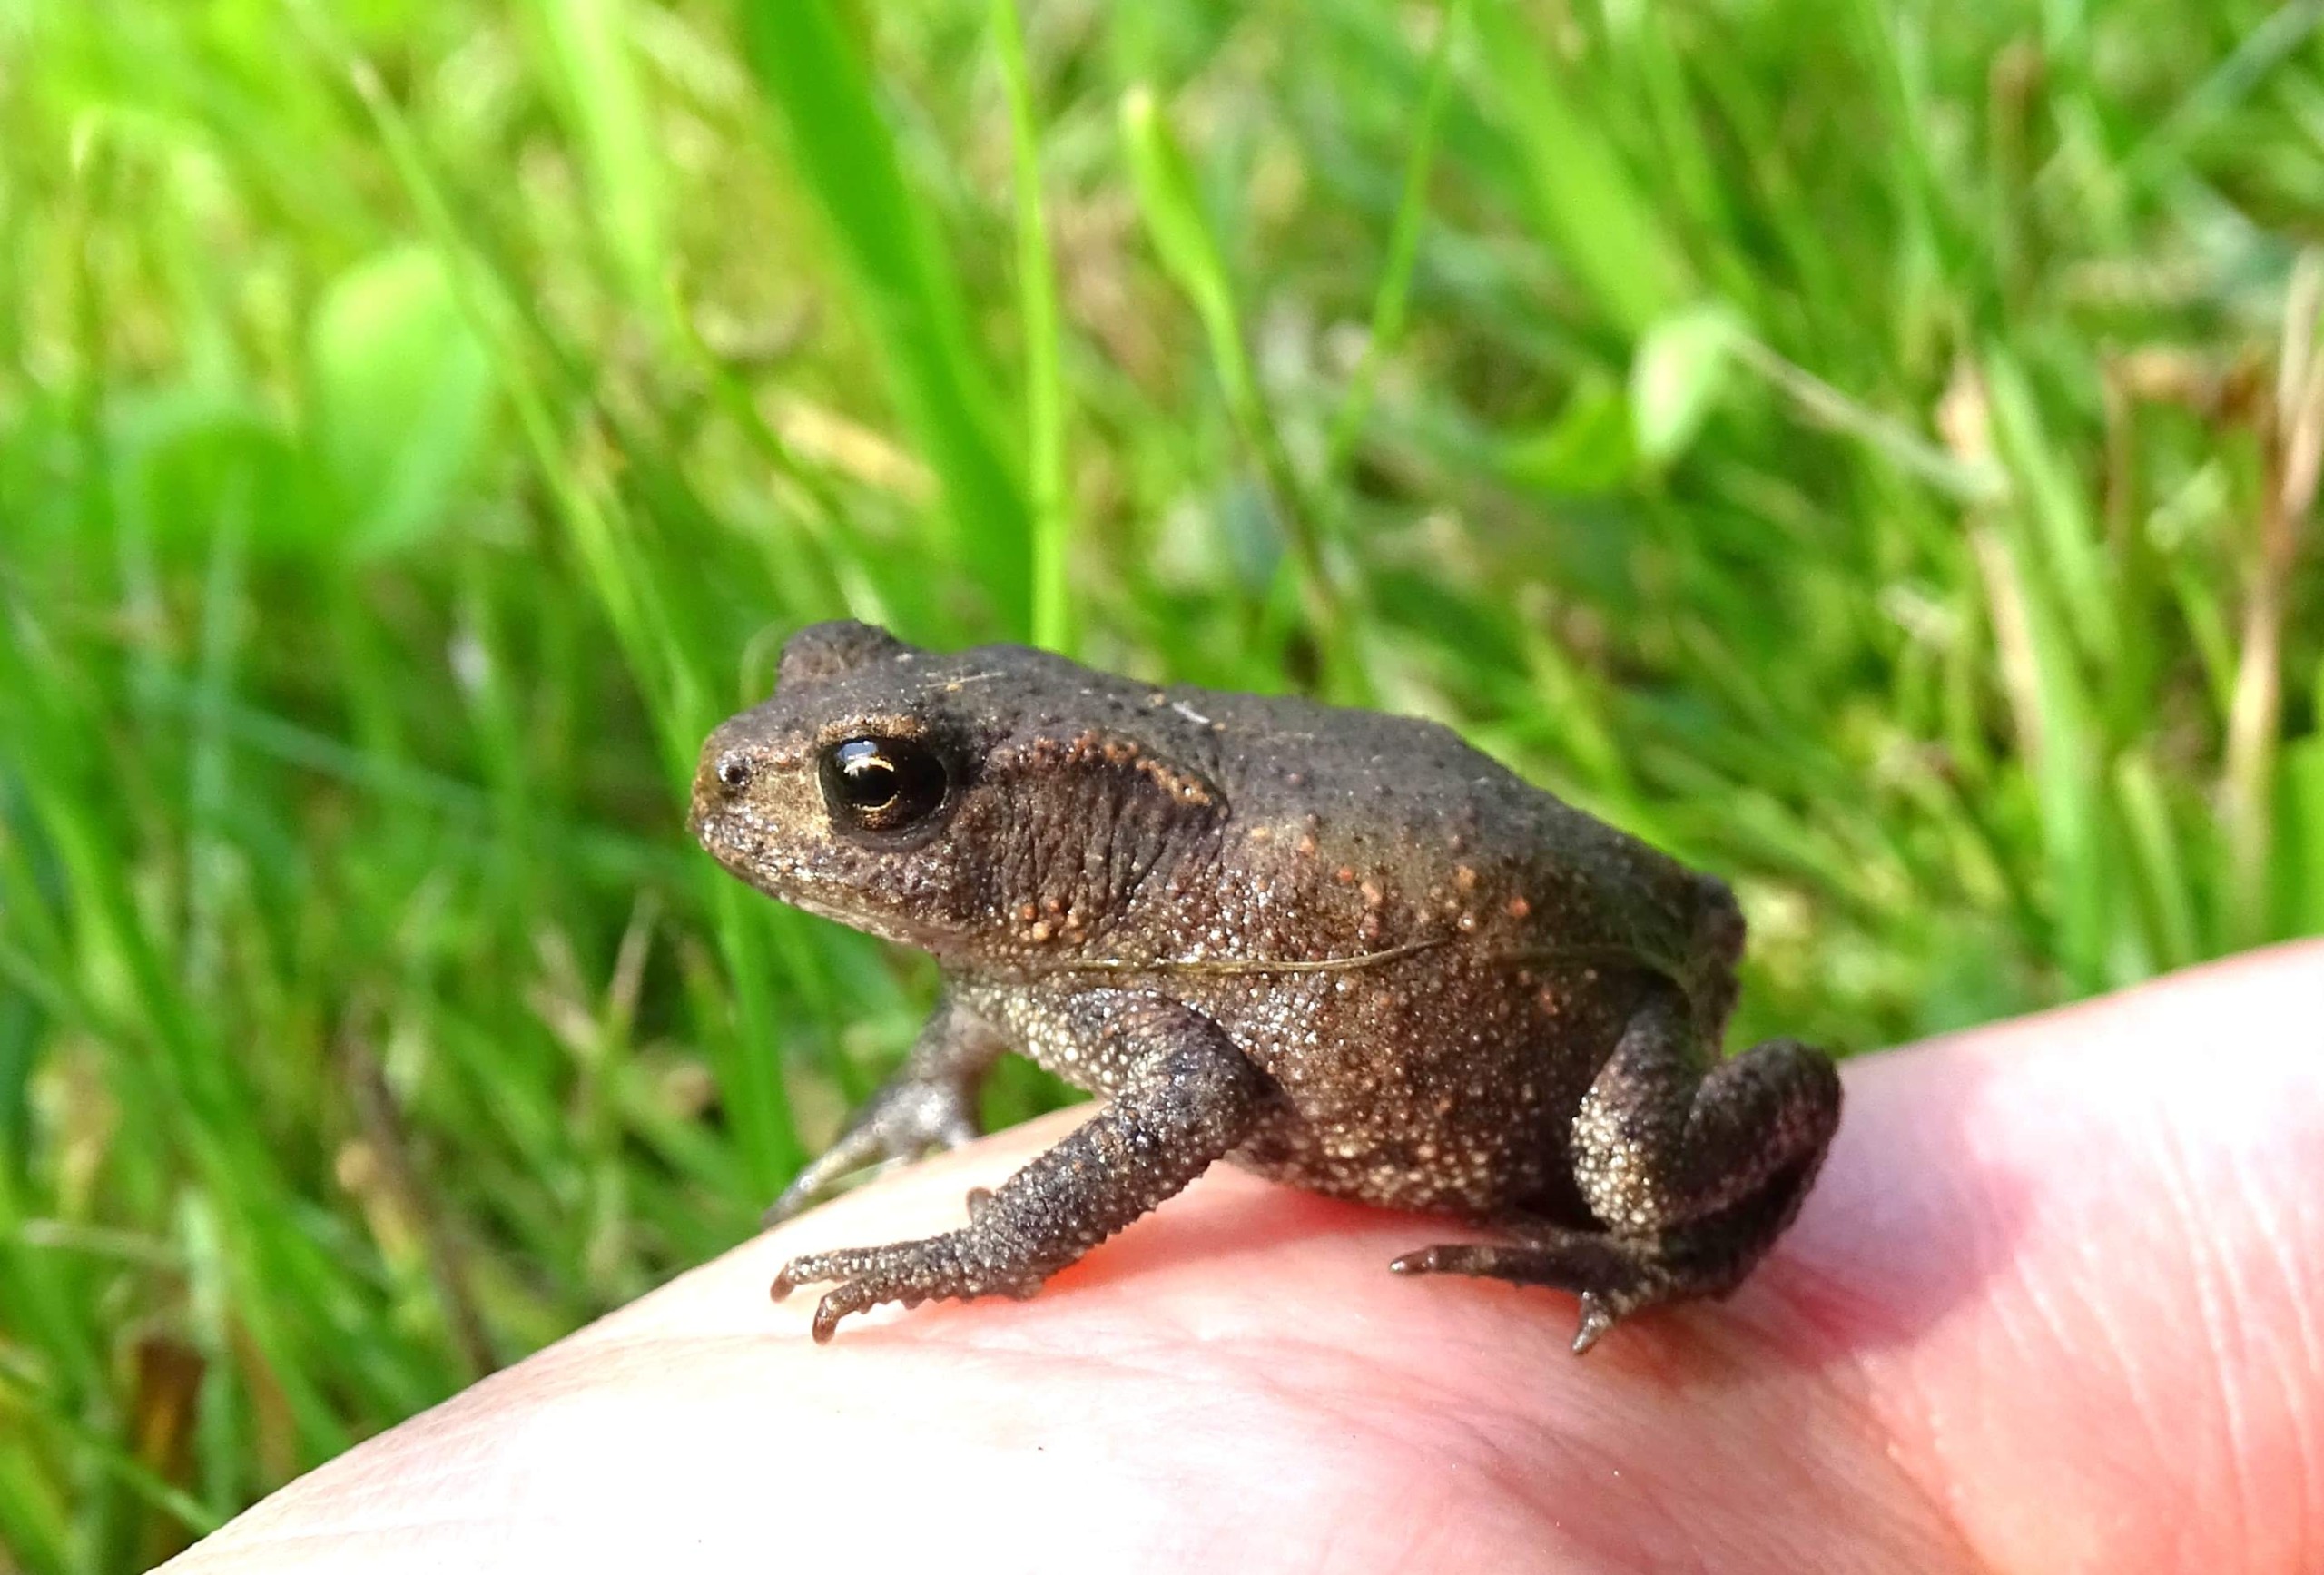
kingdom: Animalia
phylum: Chordata
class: Amphibia
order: Anura
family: Bufonidae
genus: Bufo
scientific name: Bufo bufo
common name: Skrubtudse
